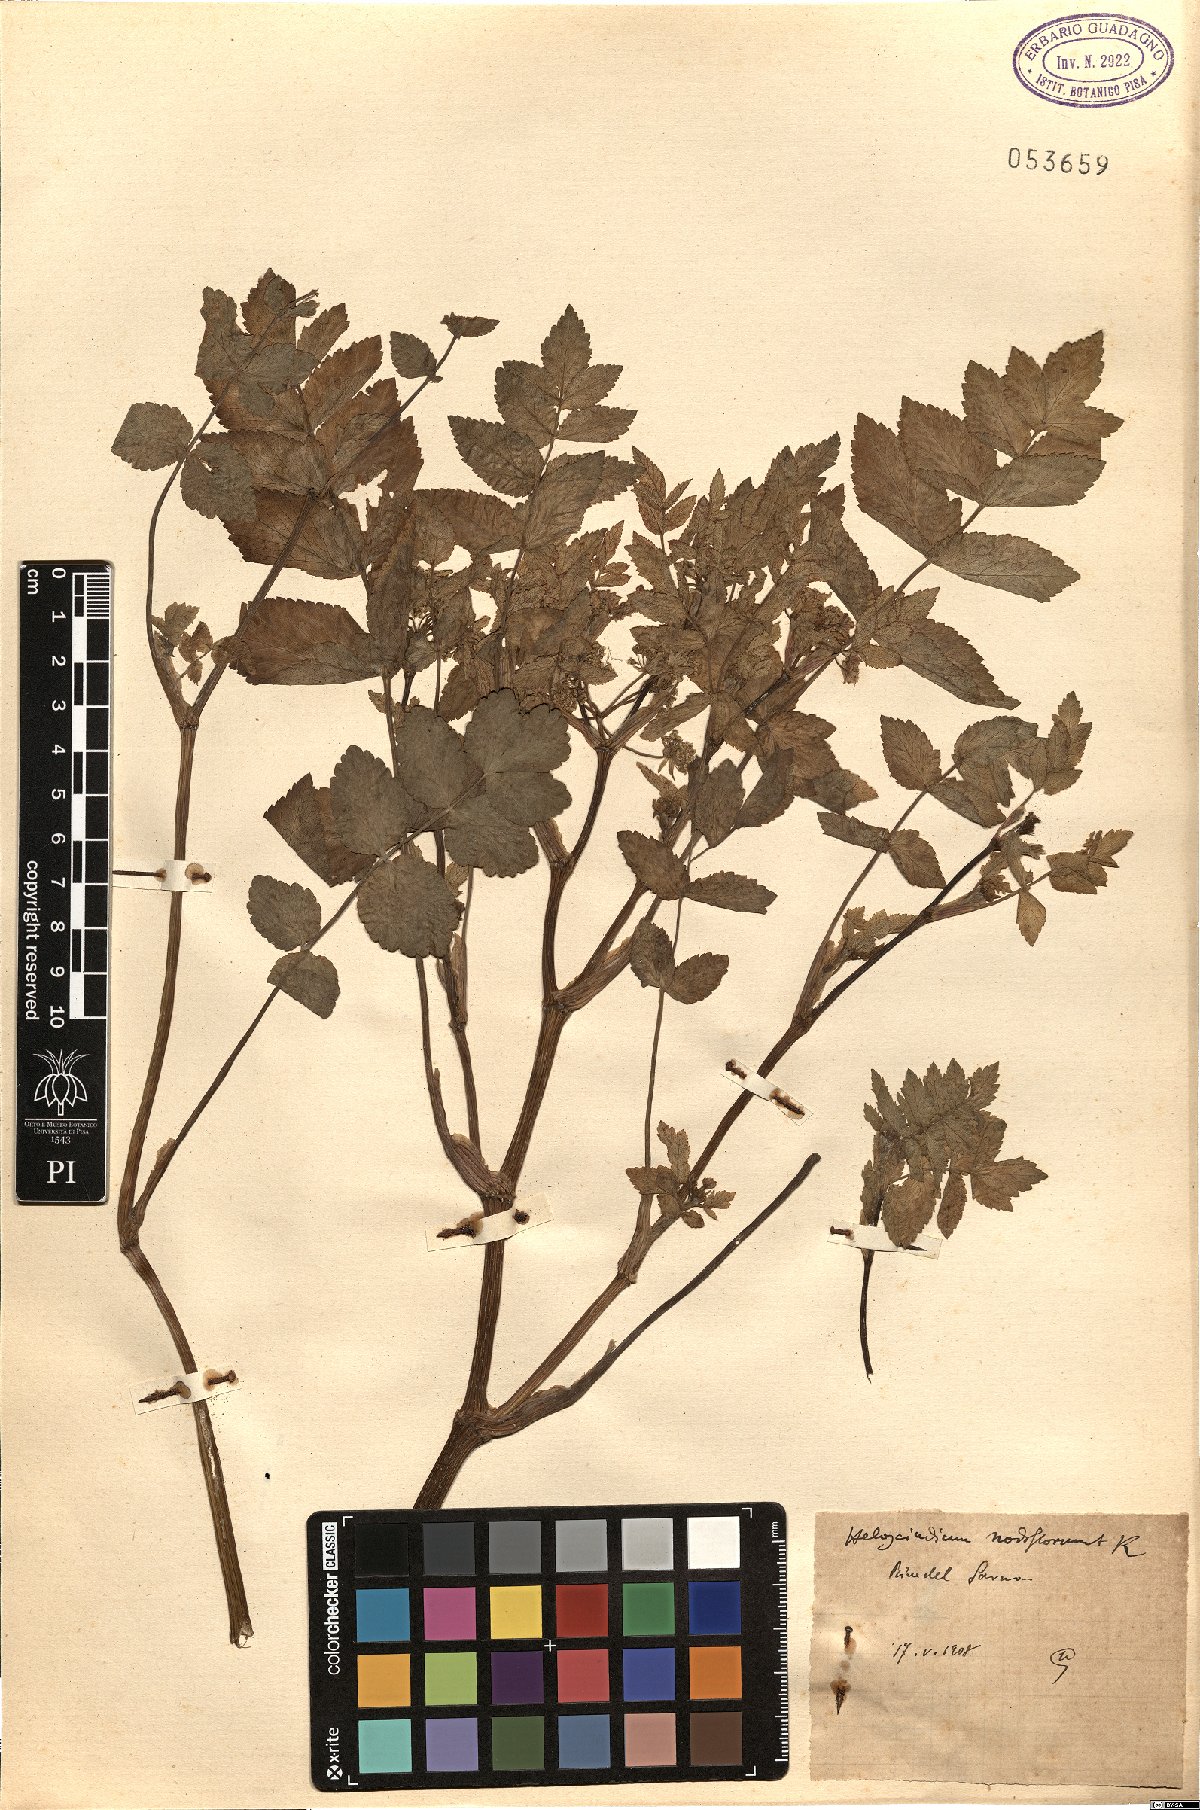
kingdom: Plantae
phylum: Tracheophyta
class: Magnoliopsida
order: Apiales
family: Apiaceae
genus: Helosciadium
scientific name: Helosciadium nodiflorum
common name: Fool's-watercress
